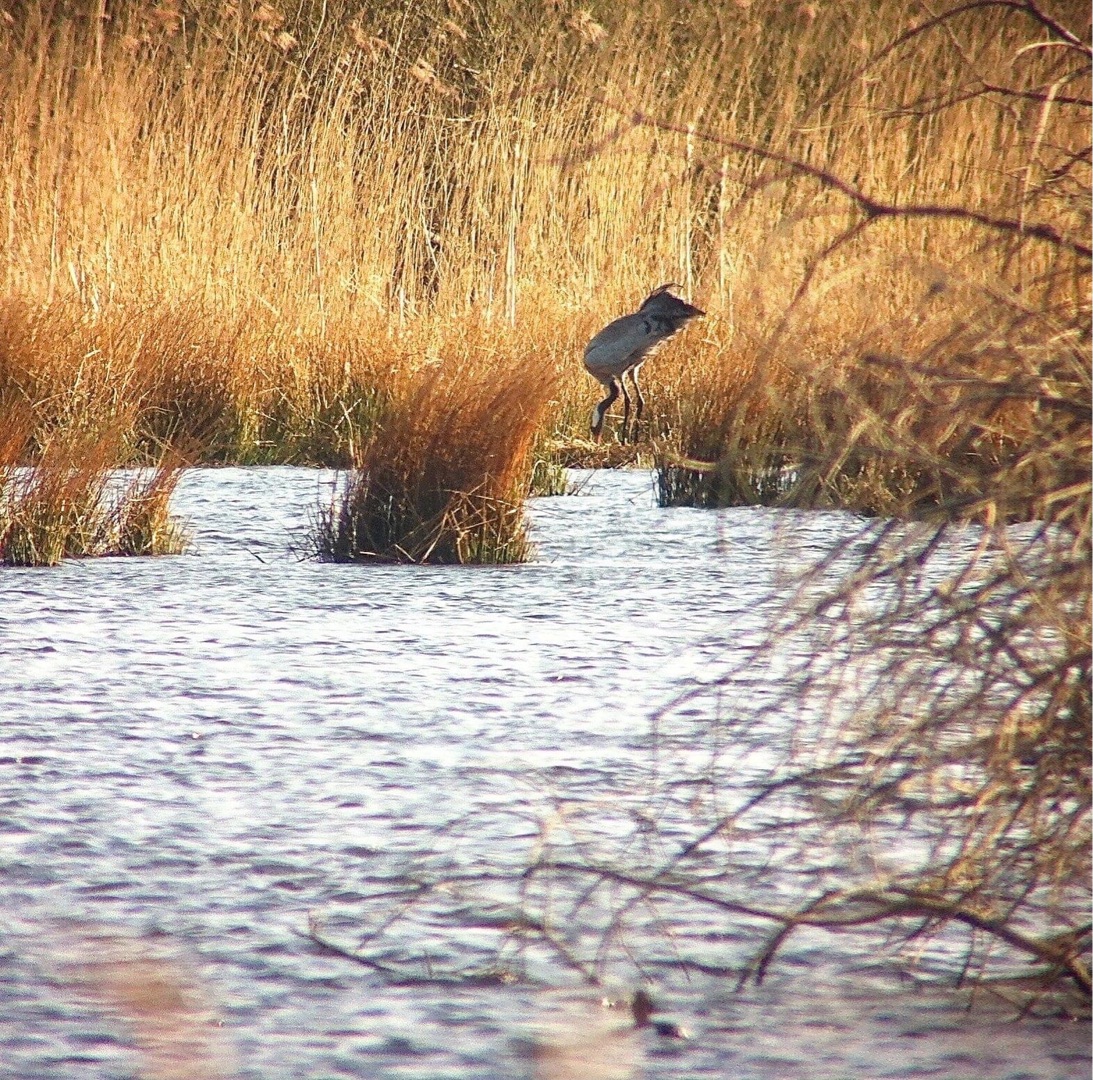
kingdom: Animalia
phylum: Chordata
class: Aves
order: Gruiformes
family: Gruidae
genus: Grus
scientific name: Grus grus
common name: Trane
